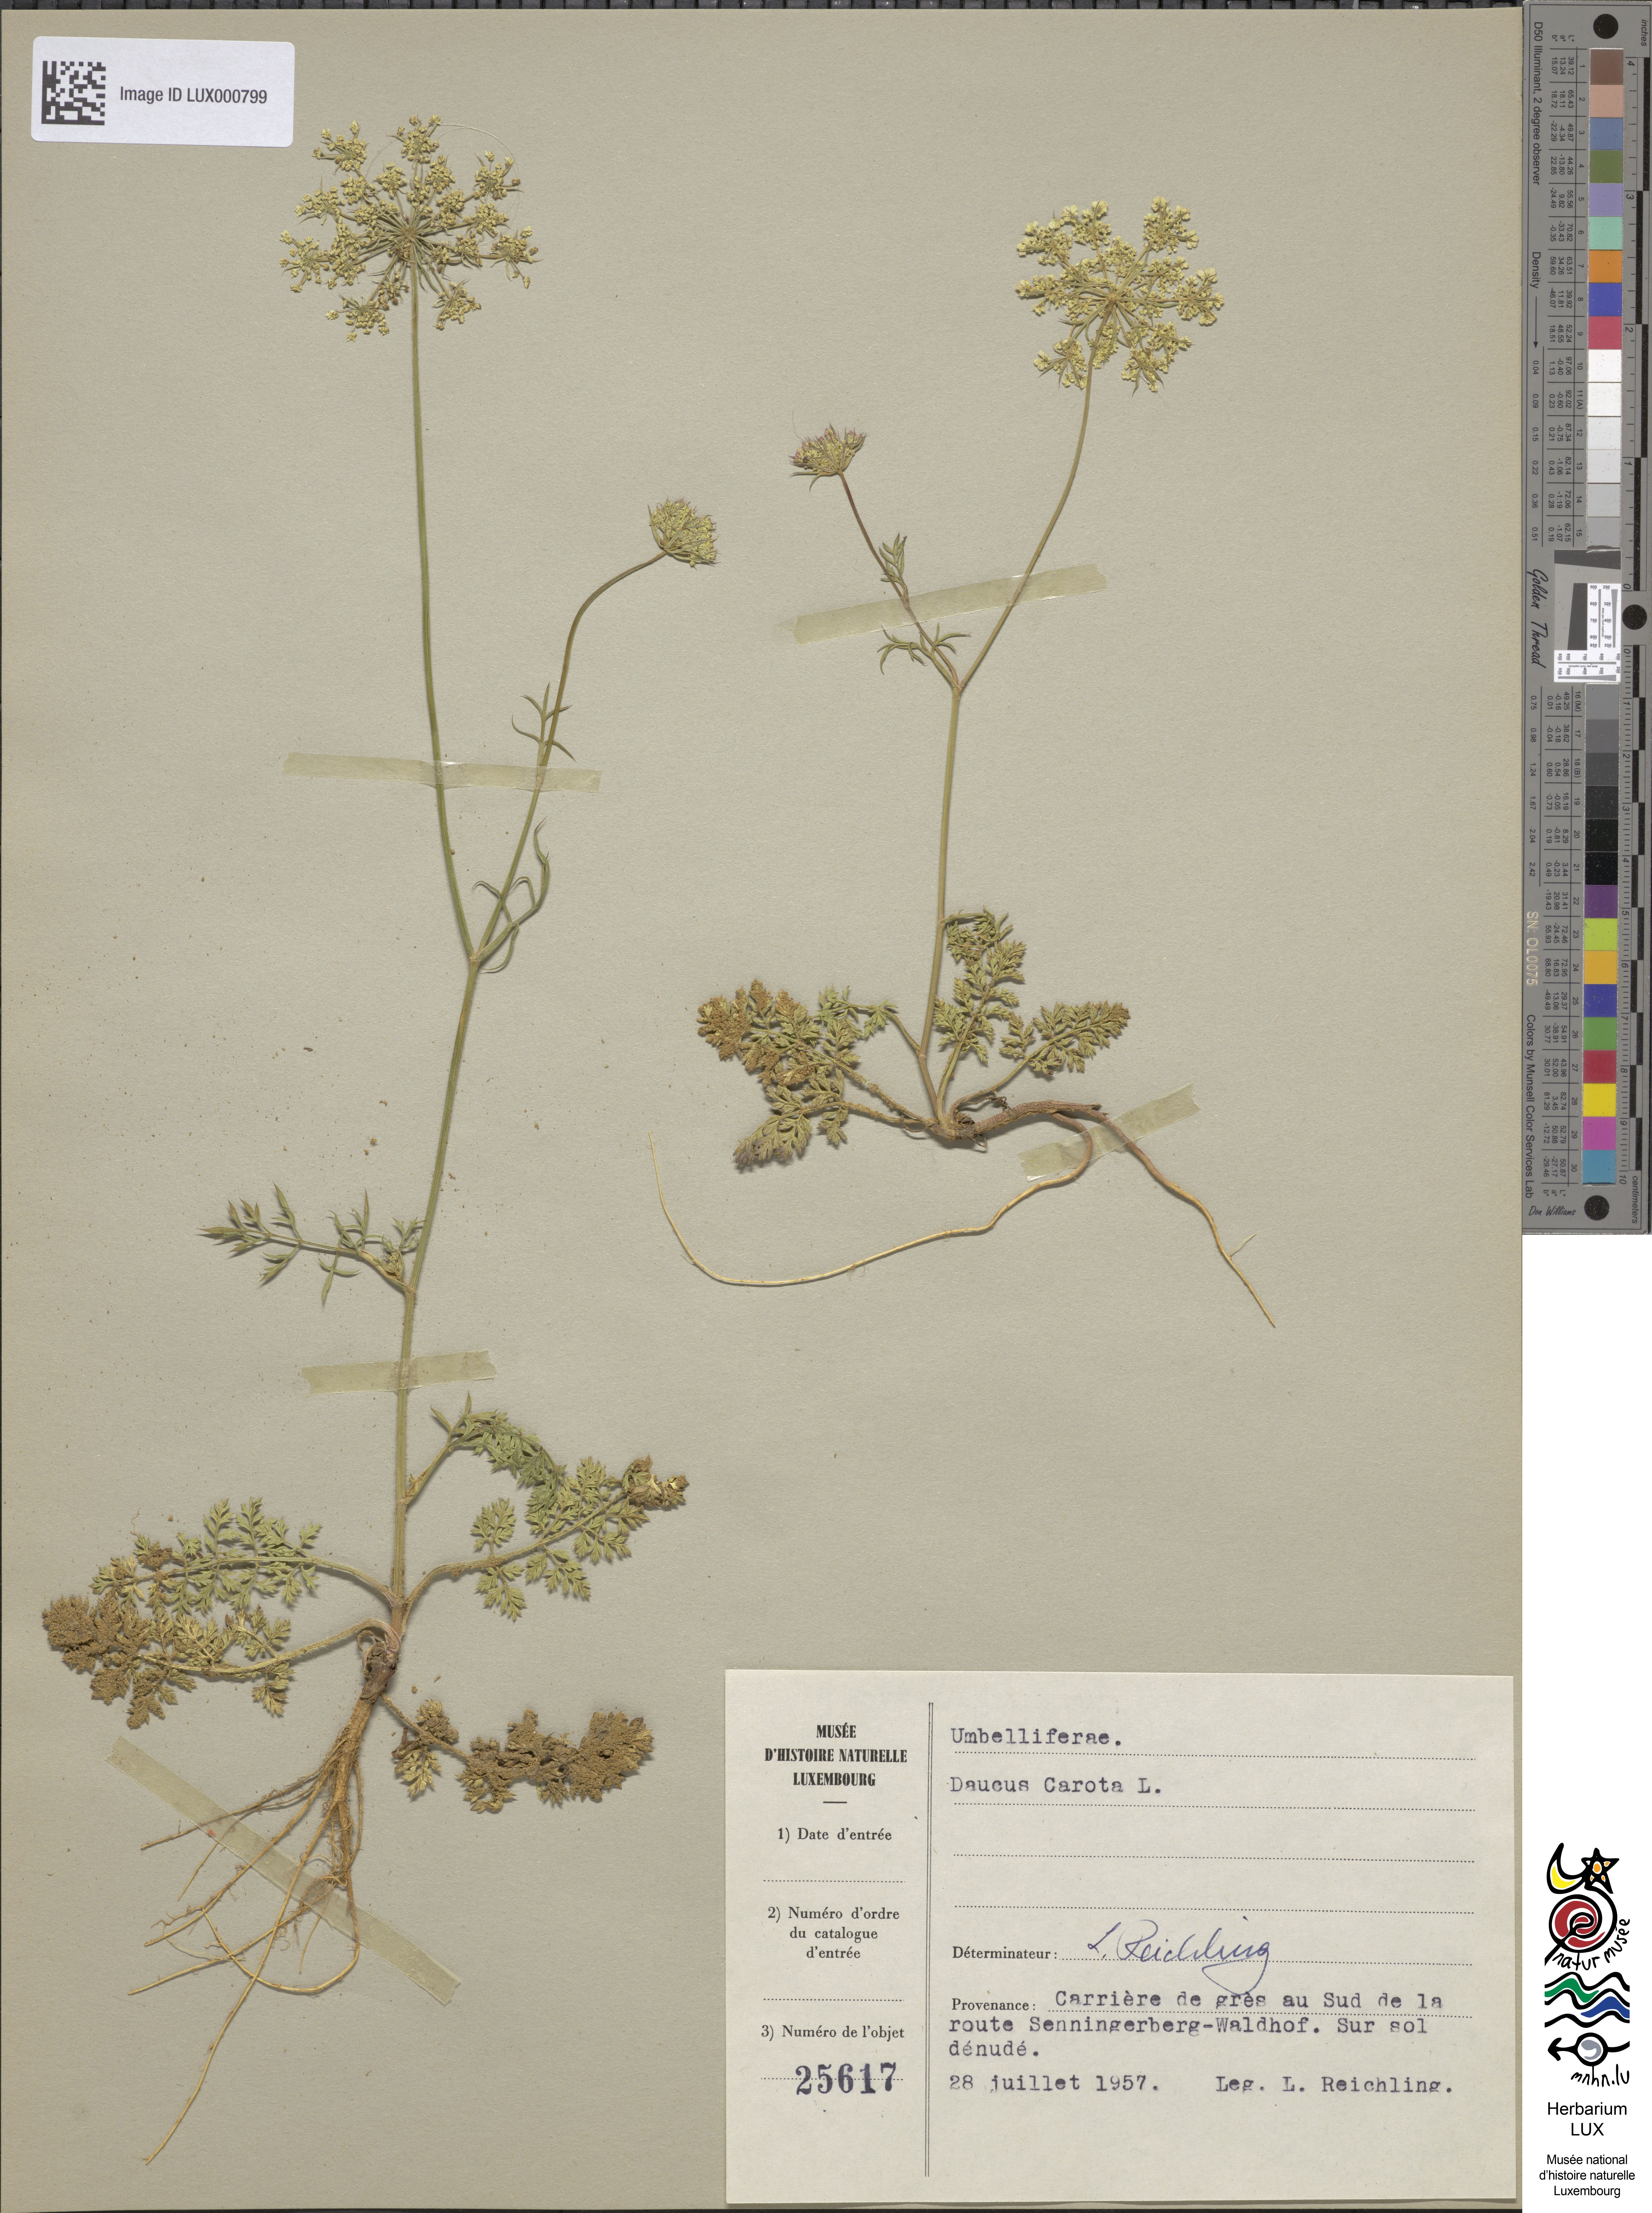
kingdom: Plantae
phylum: Tracheophyta
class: Magnoliopsida
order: Apiales
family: Apiaceae
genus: Daucus
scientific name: Daucus carota
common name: Wild carrot
